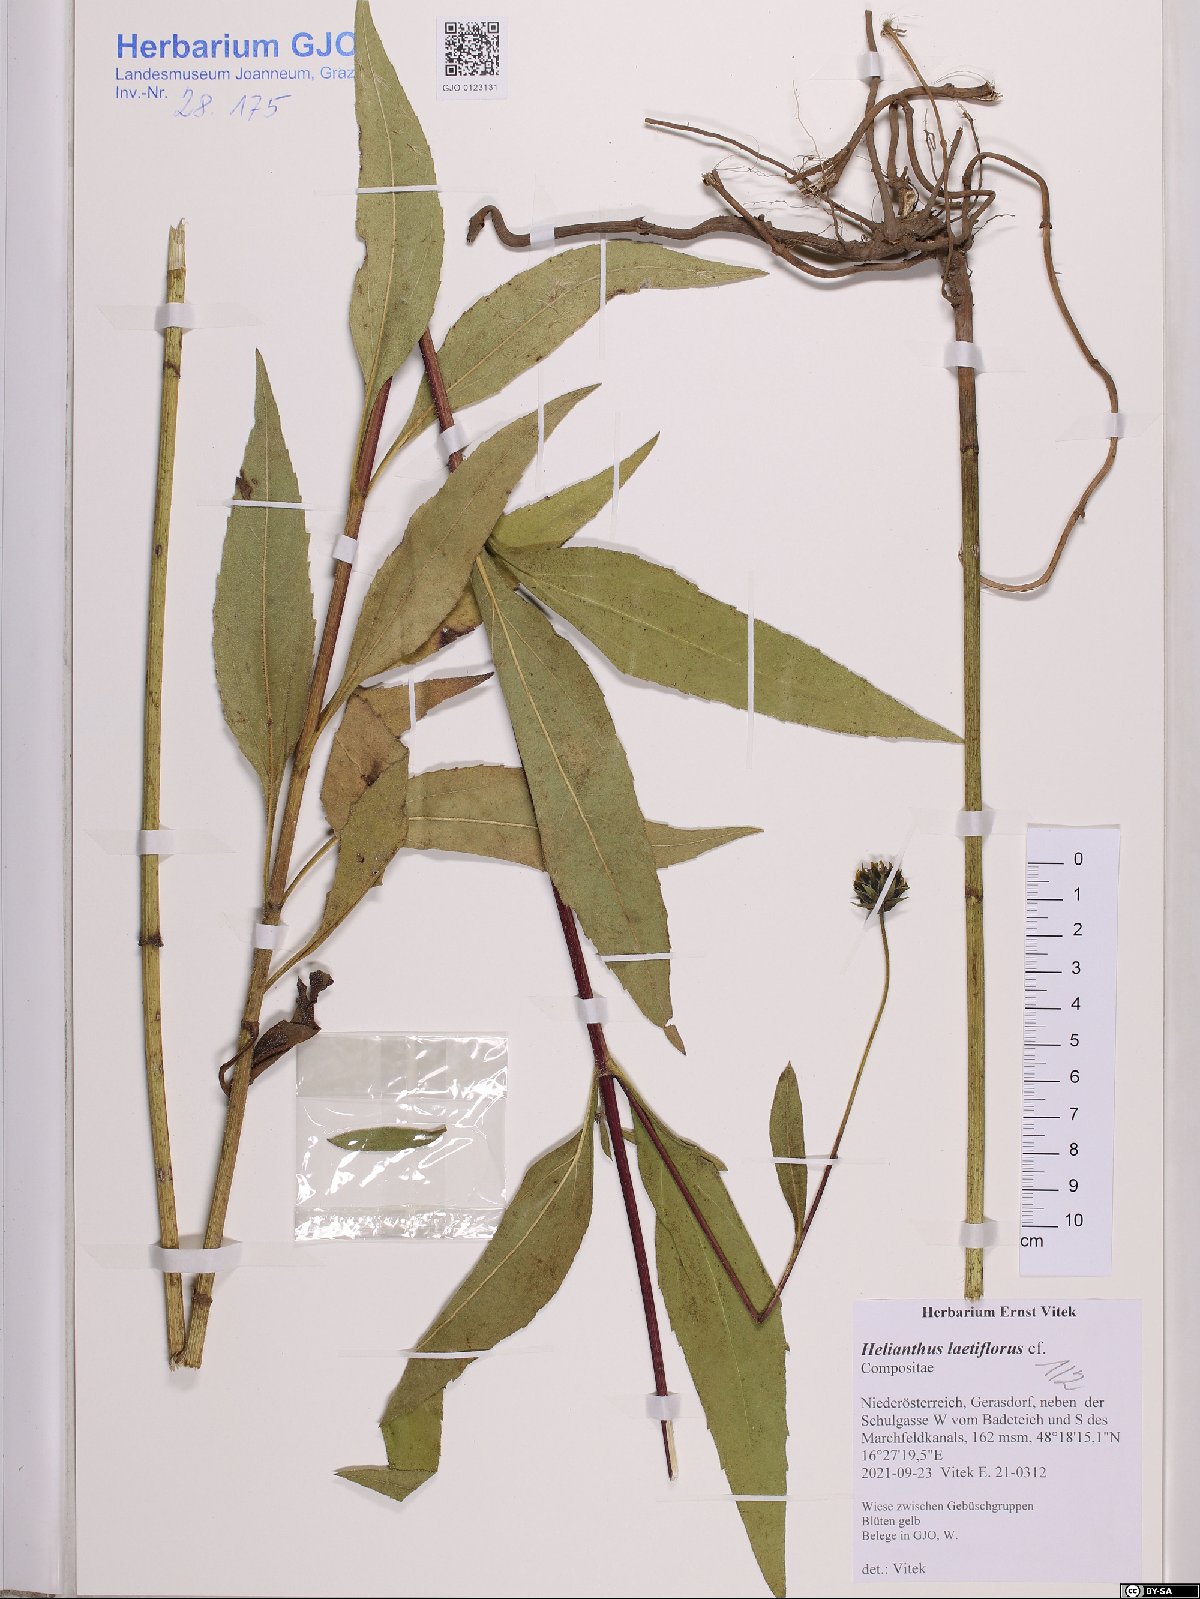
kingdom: Plantae
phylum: Tracheophyta
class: Magnoliopsida
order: Asterales
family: Asteraceae
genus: Helianthus
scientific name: Helianthus laetiflorus
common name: Perennial sunflower
